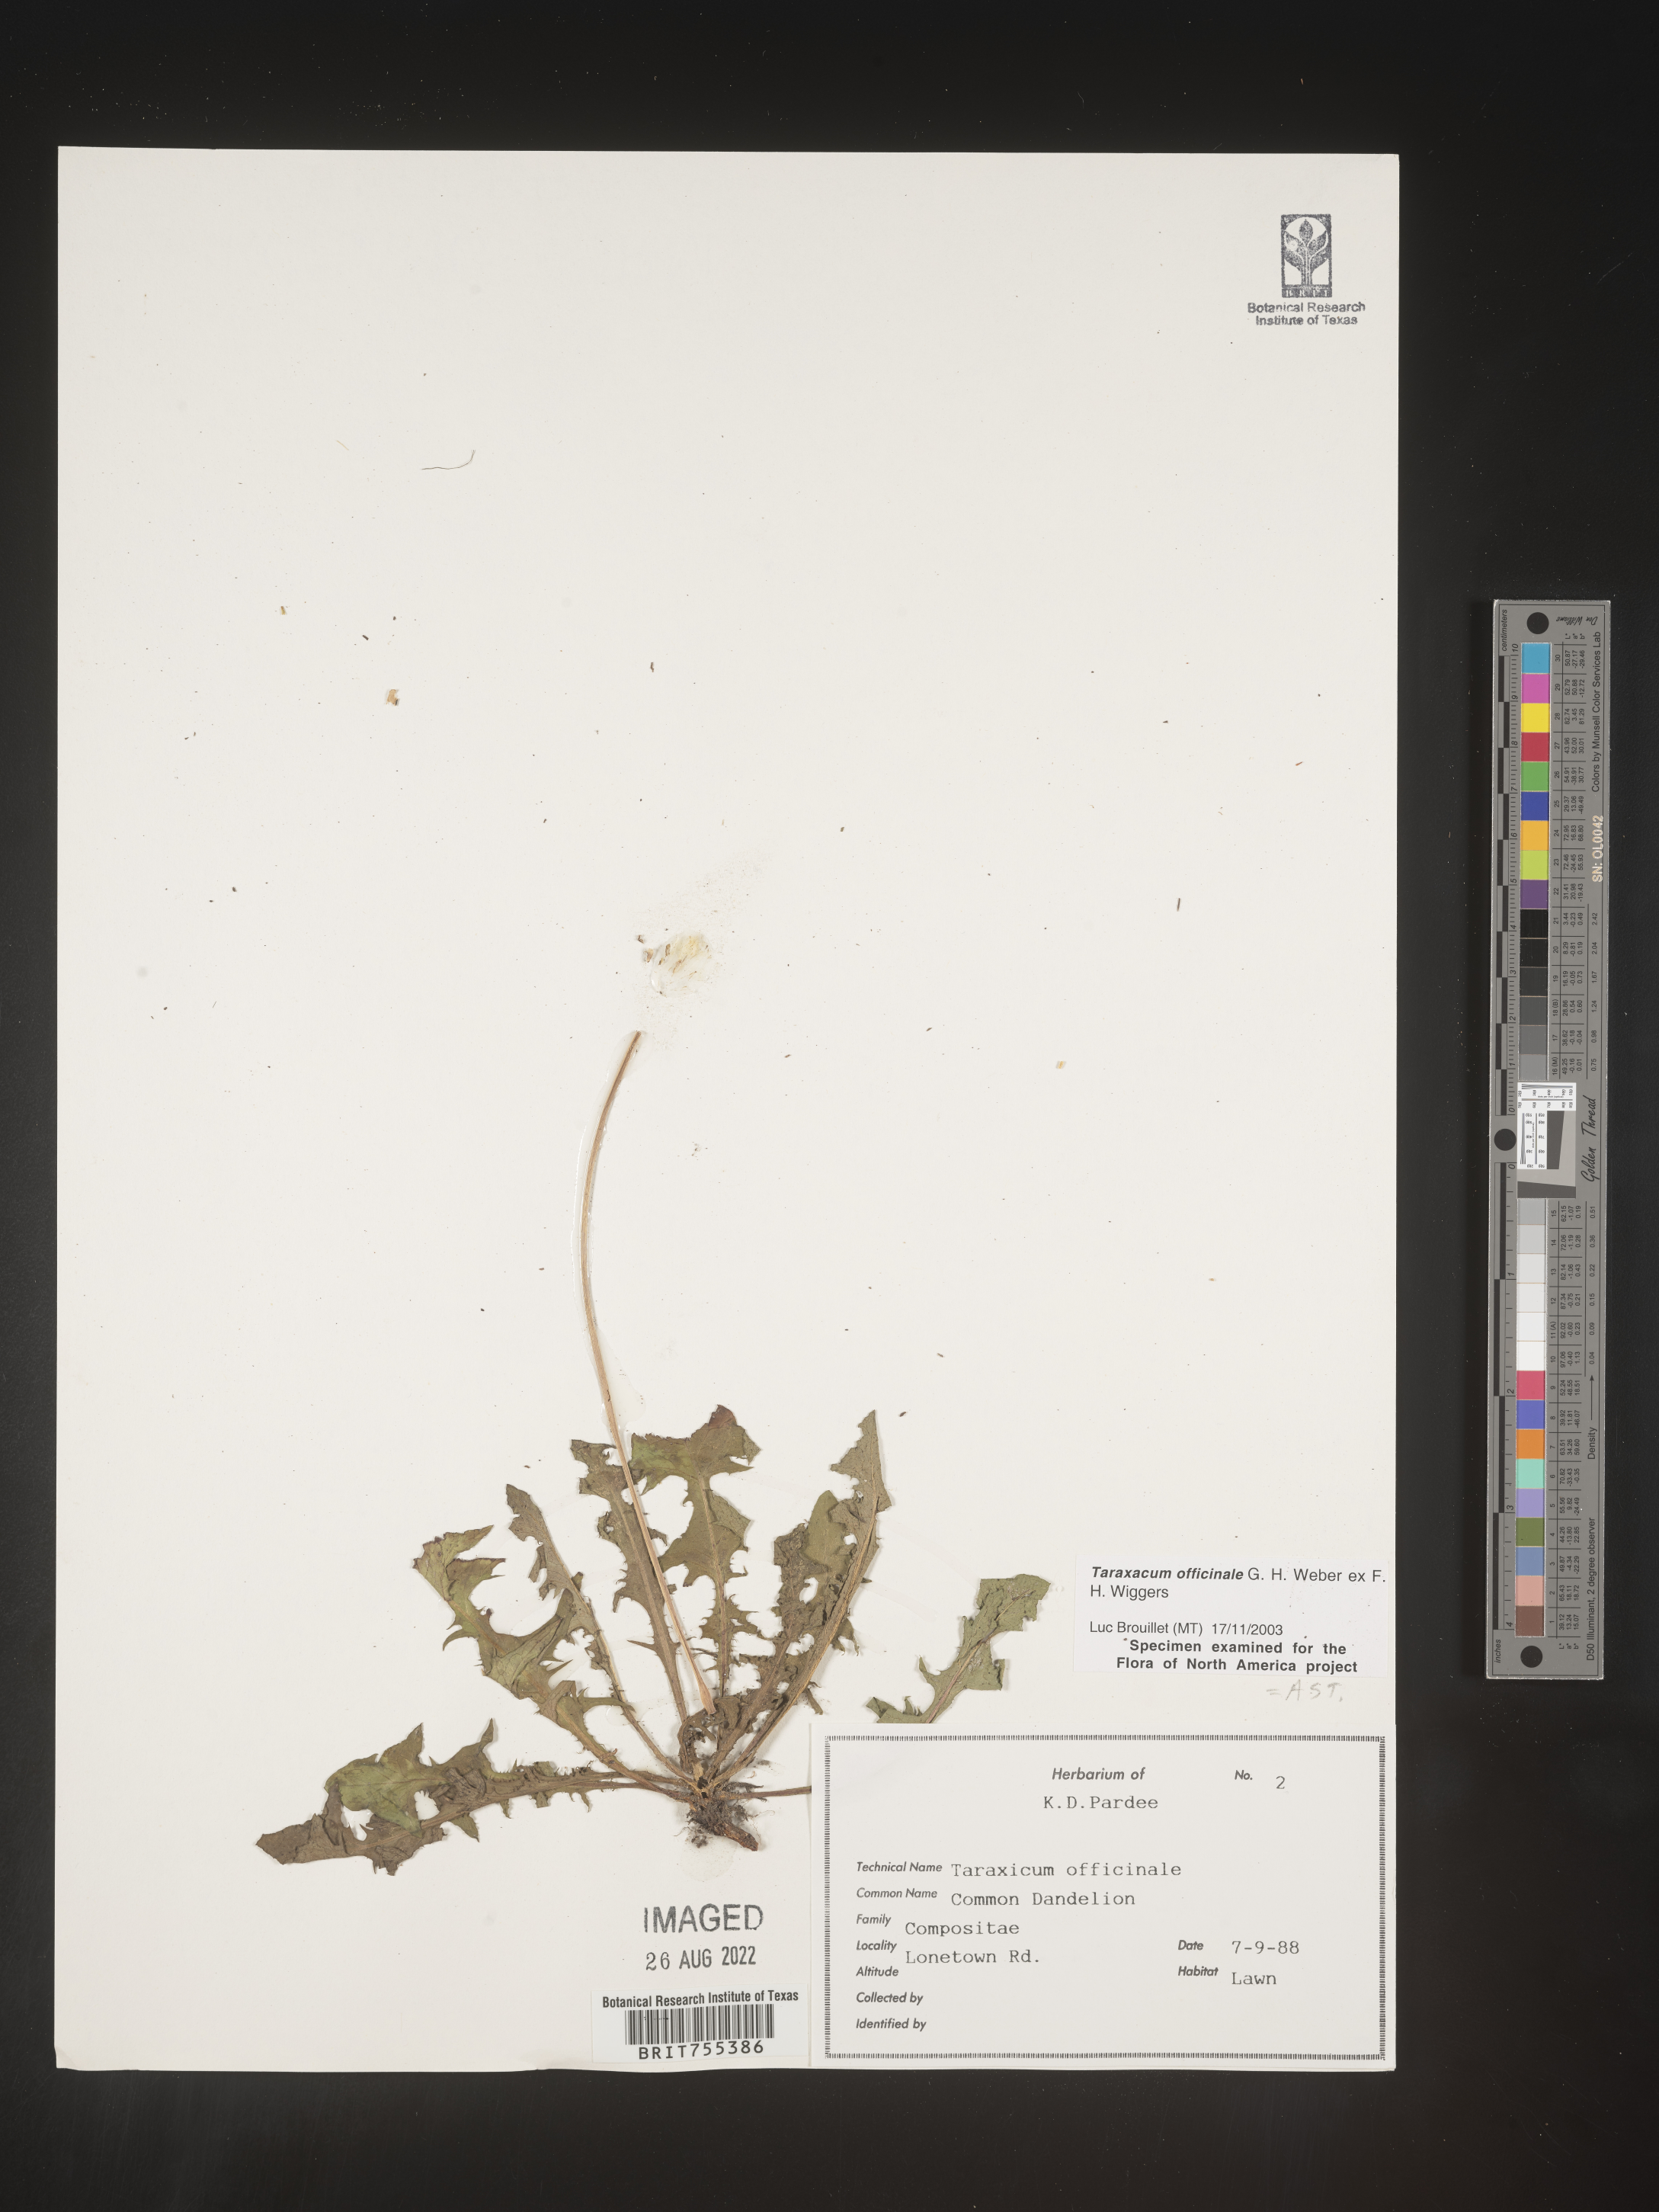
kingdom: Plantae
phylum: Tracheophyta
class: Magnoliopsida
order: Asterales
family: Asteraceae
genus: Taraxacum
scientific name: Taraxacum officinale
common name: Common dandelion
